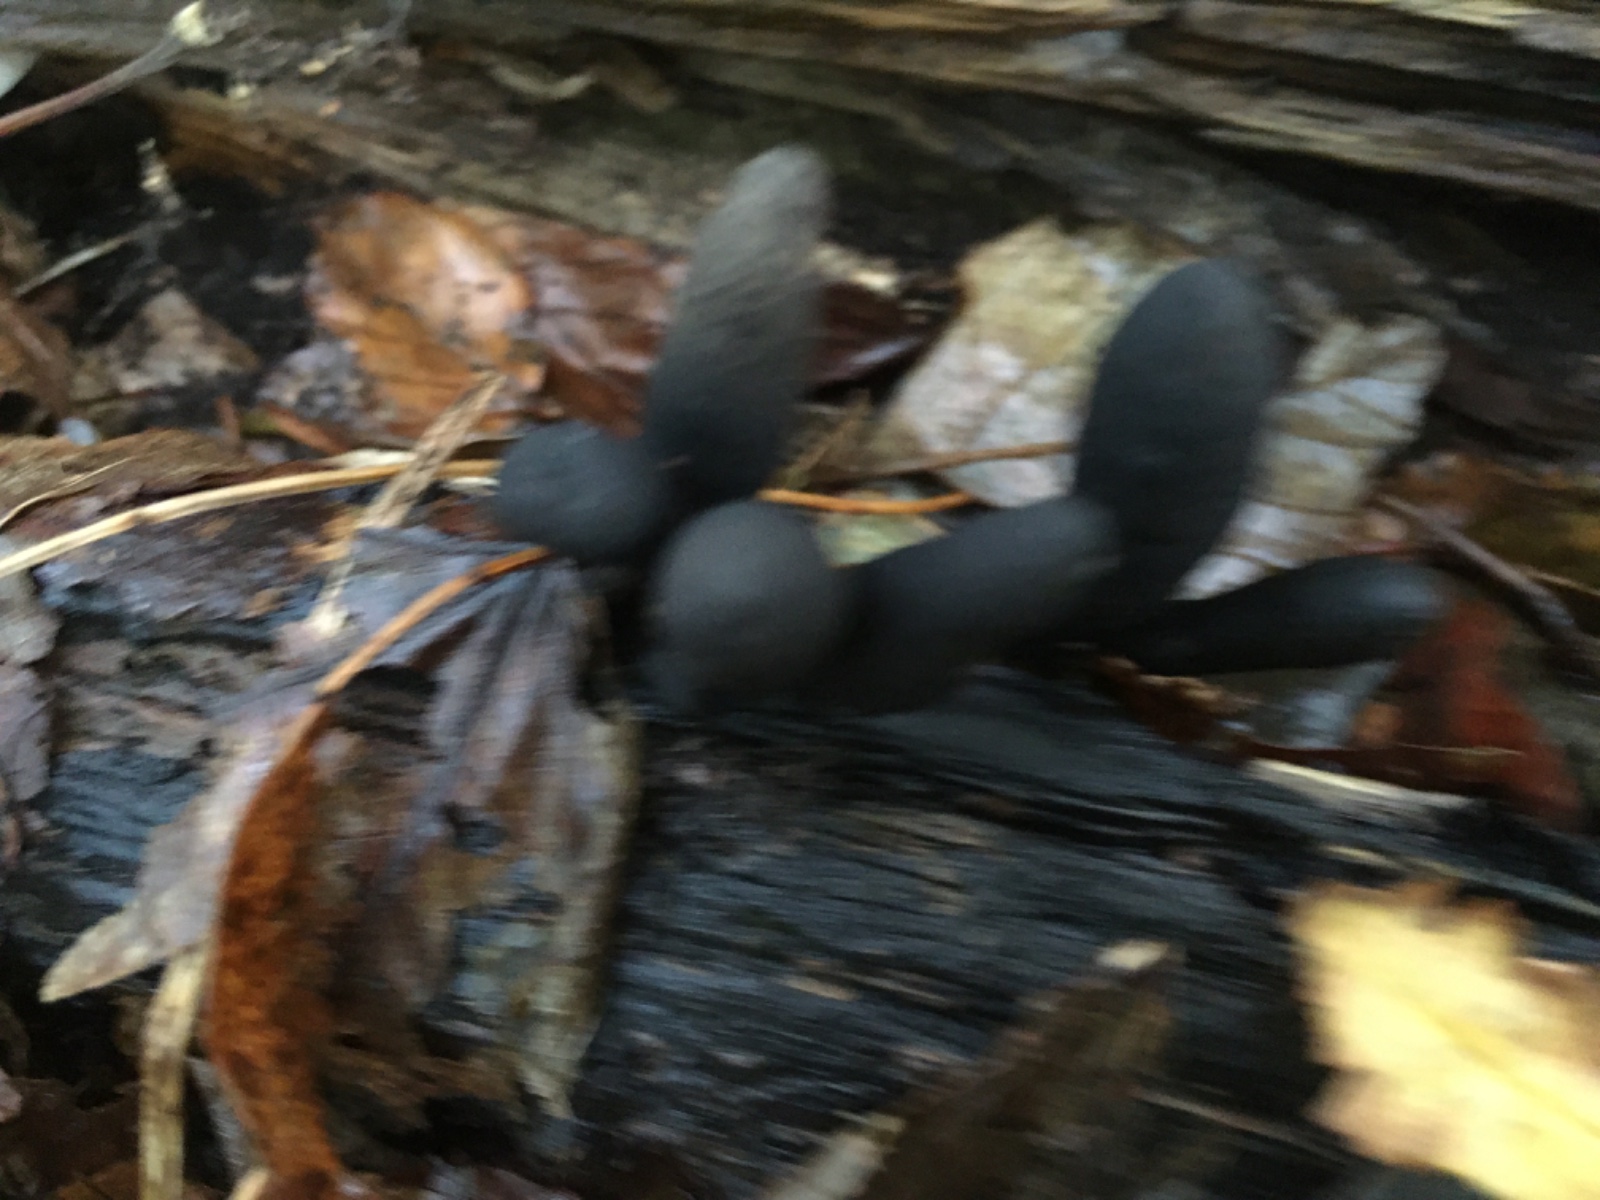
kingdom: Fungi
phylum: Ascomycota
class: Sordariomycetes
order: Xylariales
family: Xylariaceae
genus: Xylaria
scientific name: Xylaria longipes
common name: slank stødsvamp
